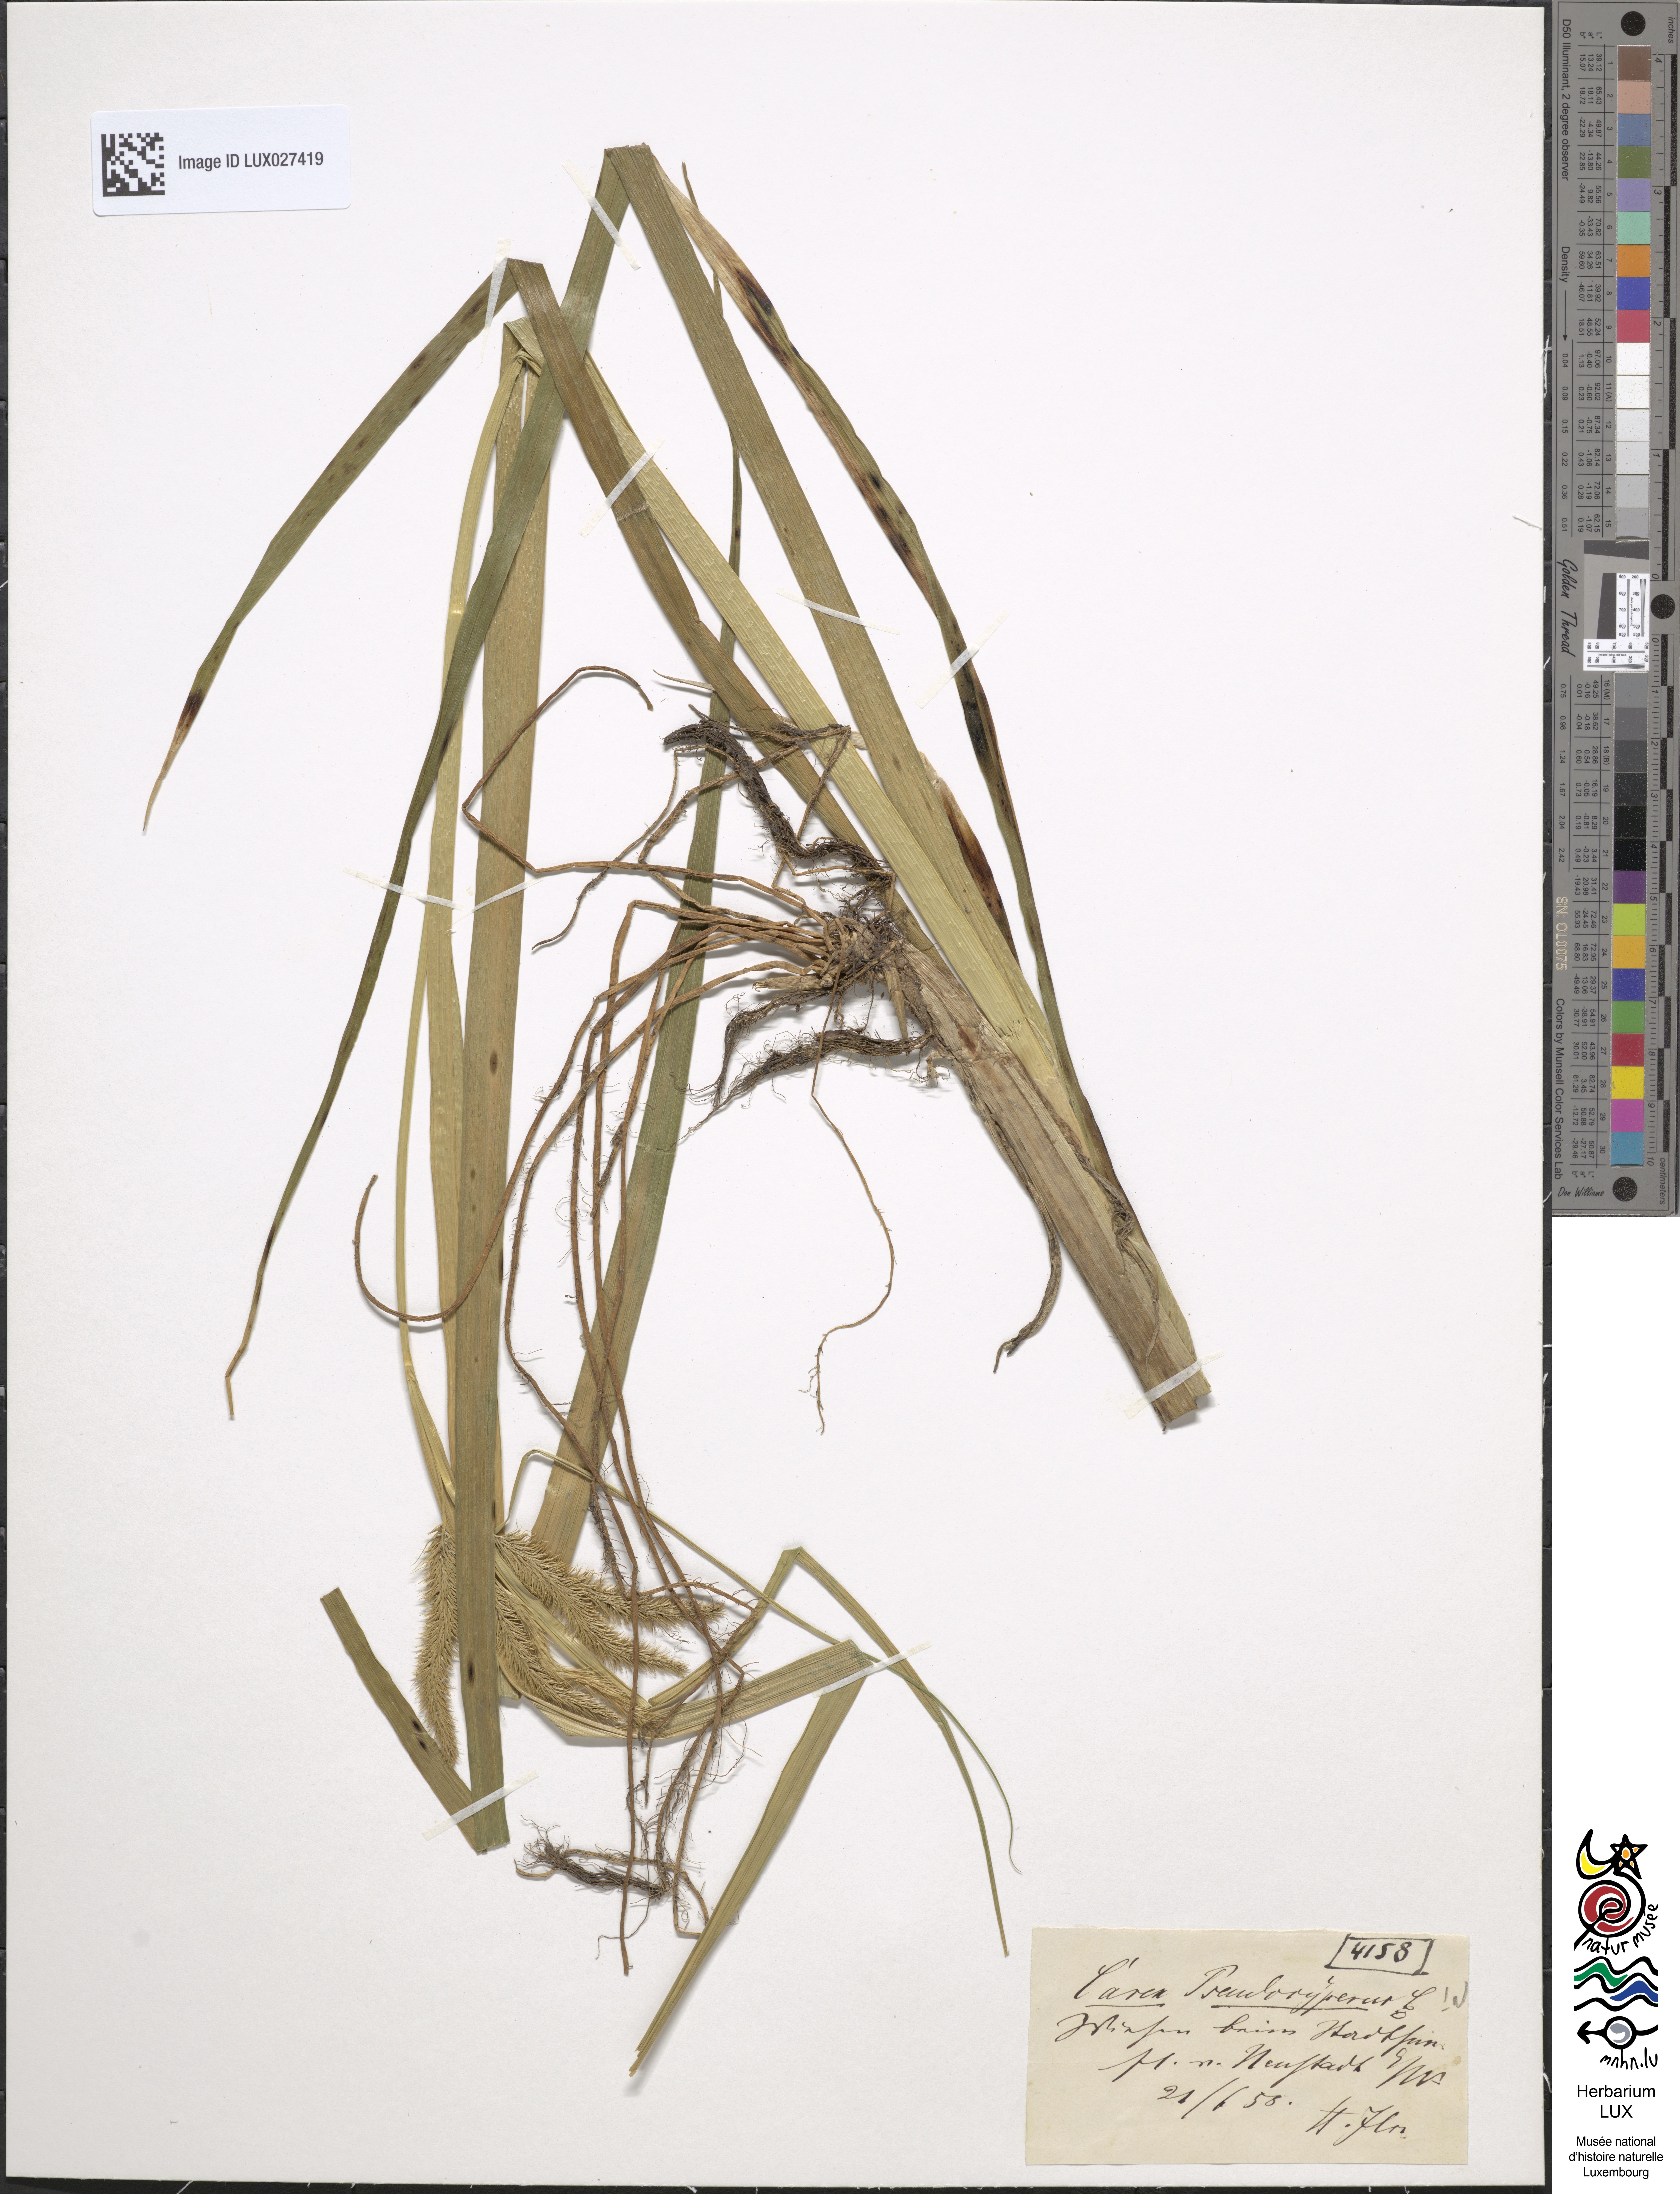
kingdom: Plantae
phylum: Tracheophyta
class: Liliopsida
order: Poales
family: Cyperaceae
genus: Carex
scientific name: Carex pseudocyperus
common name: Cyperus sedge
